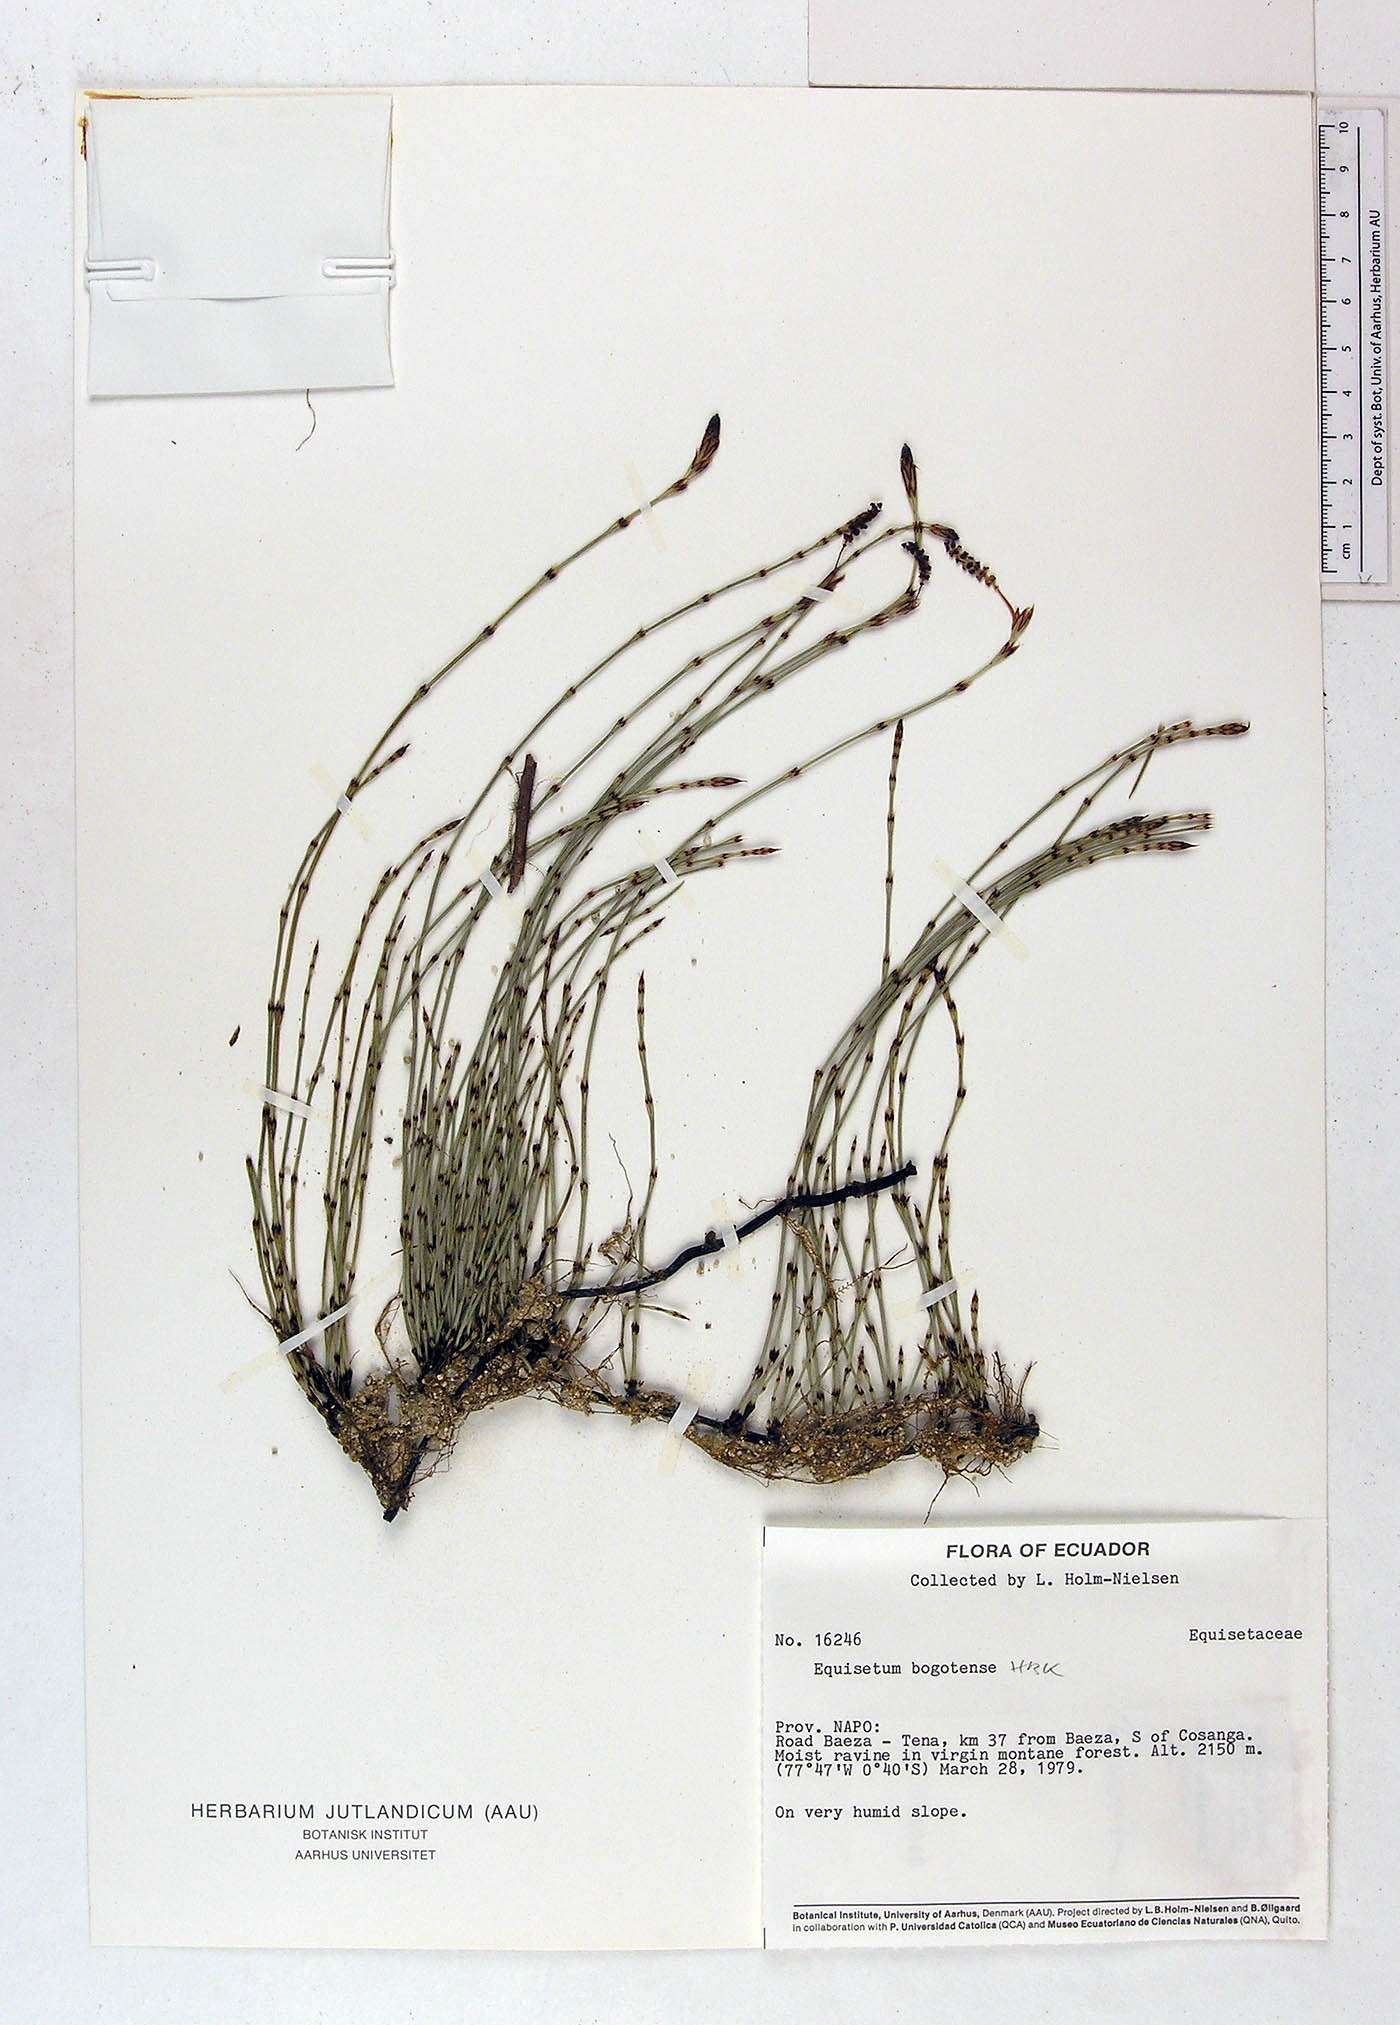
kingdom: Plantae
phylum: Tracheophyta
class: Polypodiopsida
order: Equisetales
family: Equisetaceae
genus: Equisetum
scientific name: Equisetum bogotense
